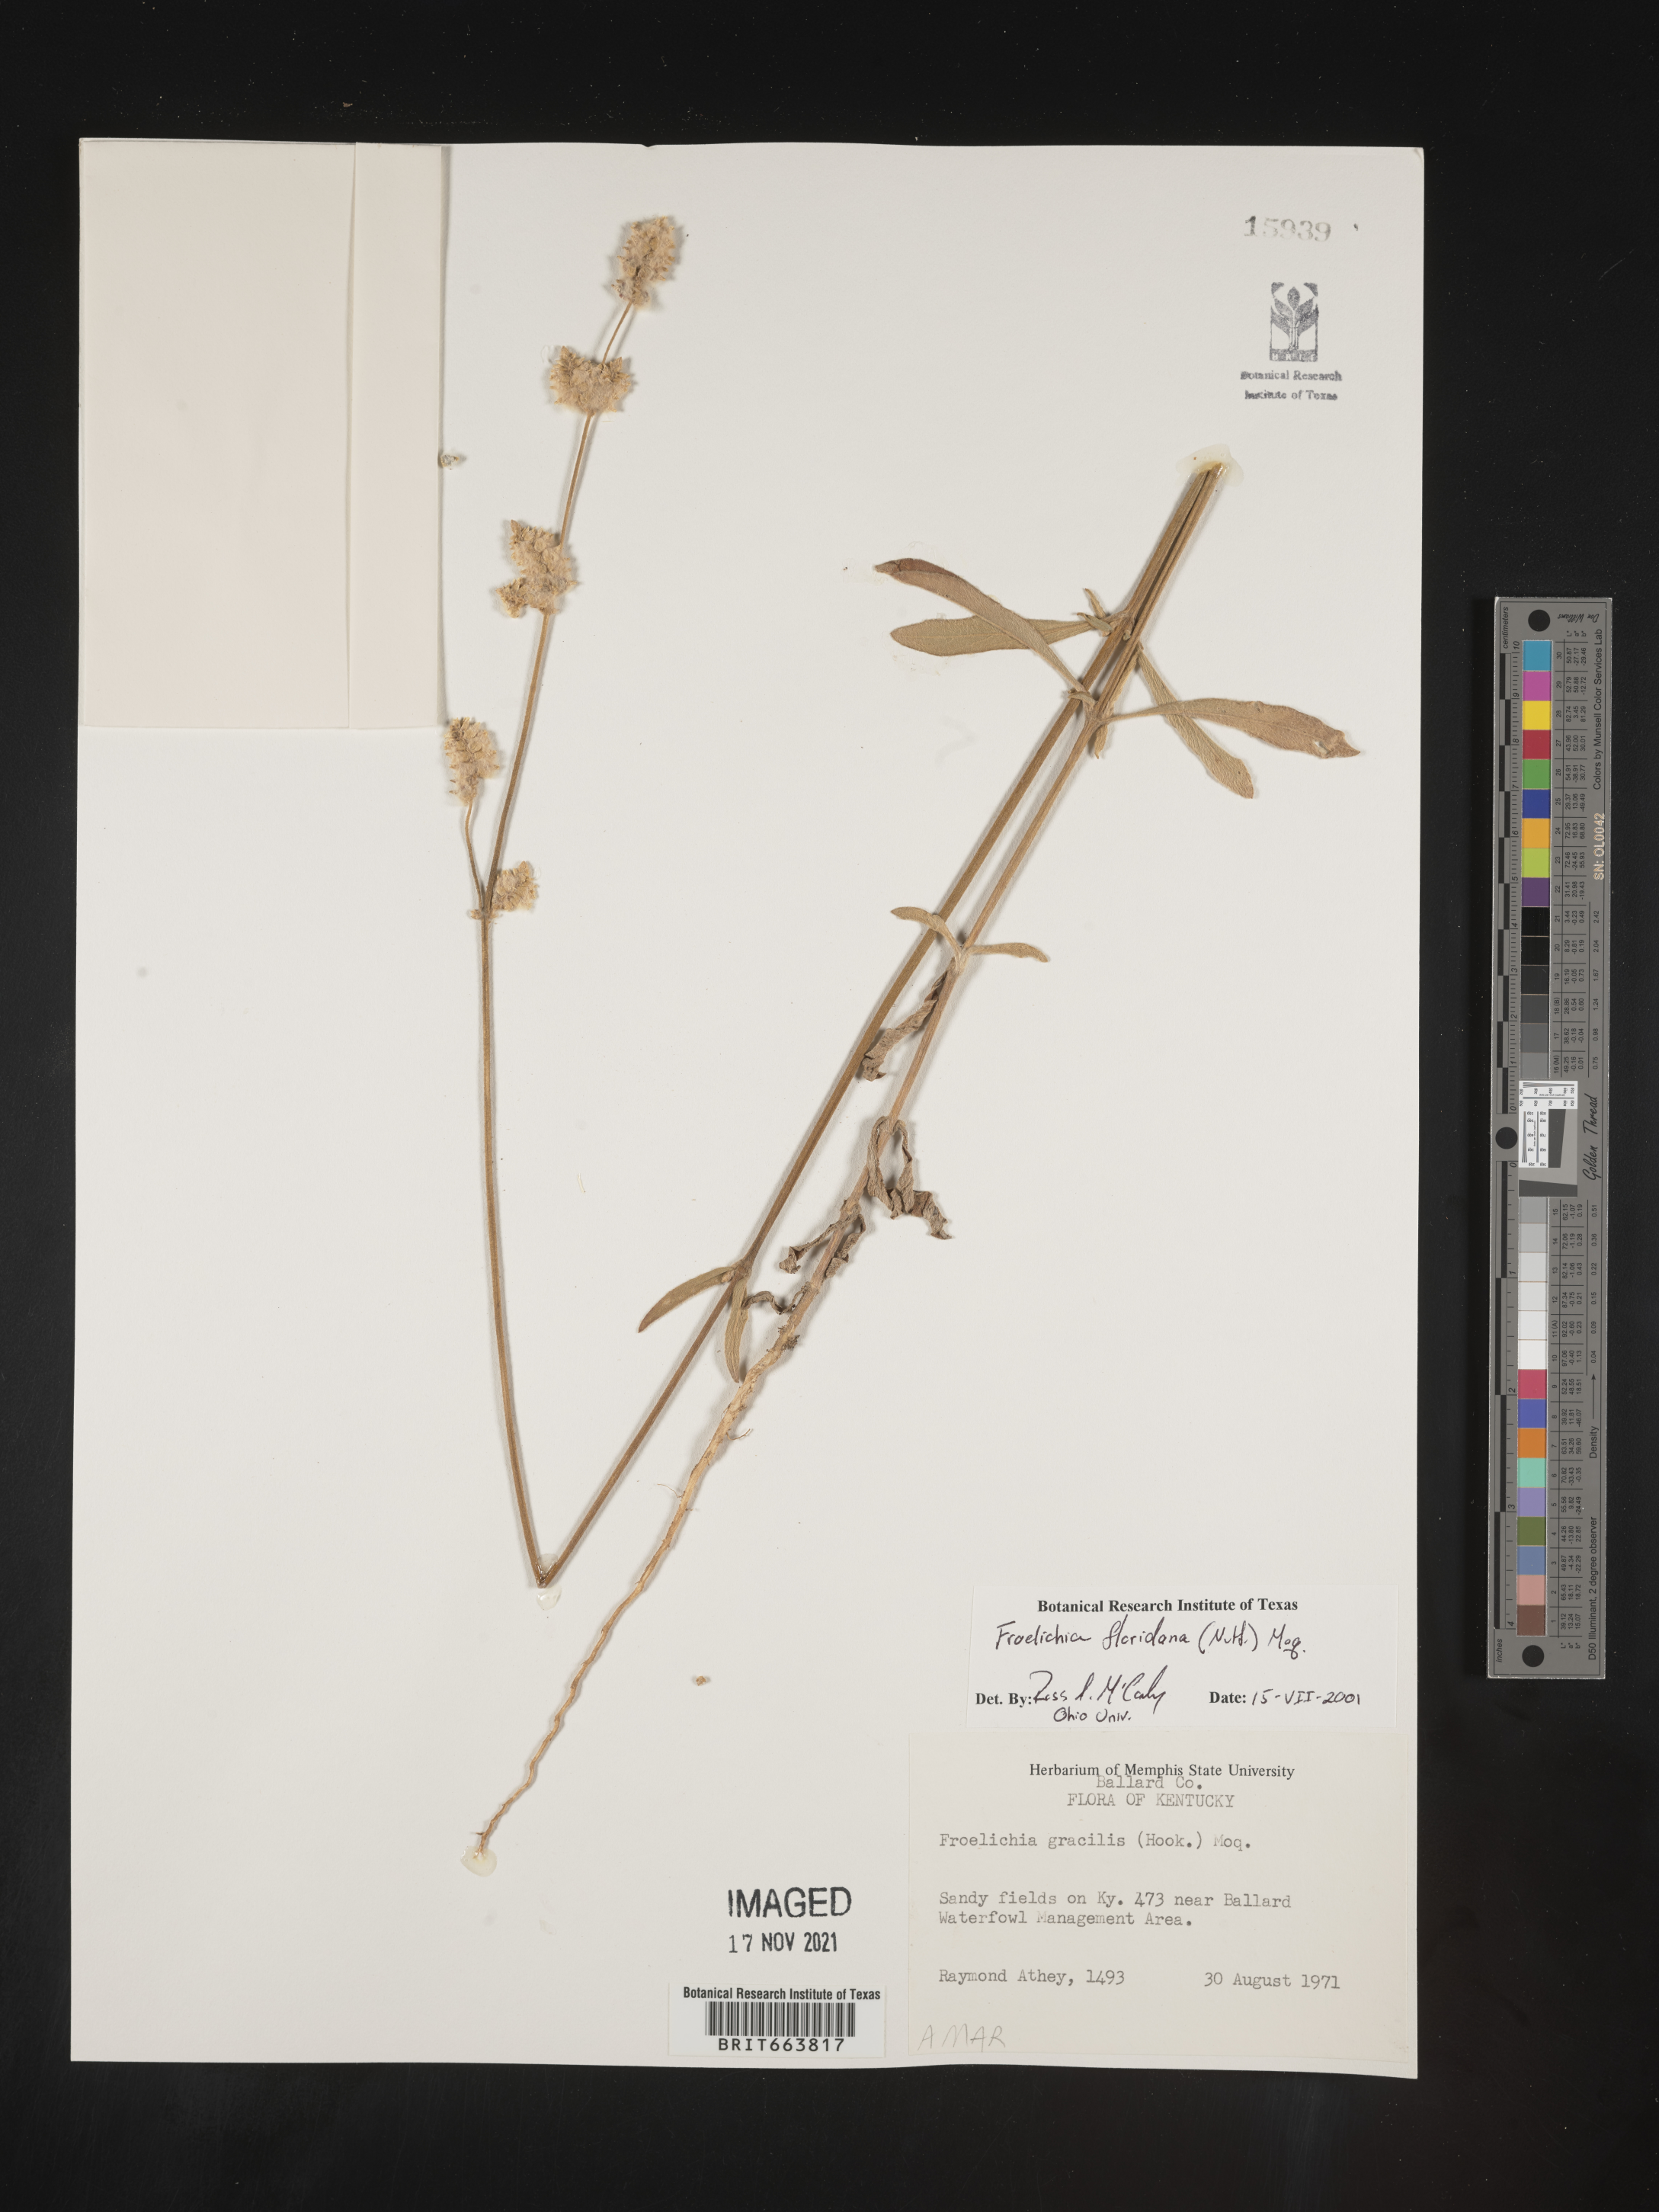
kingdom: Plantae
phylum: Tracheophyta
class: Magnoliopsida
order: Caryophyllales
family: Amaranthaceae
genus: Froelichia
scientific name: Froelichia floridana
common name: Florida snake-cotton
